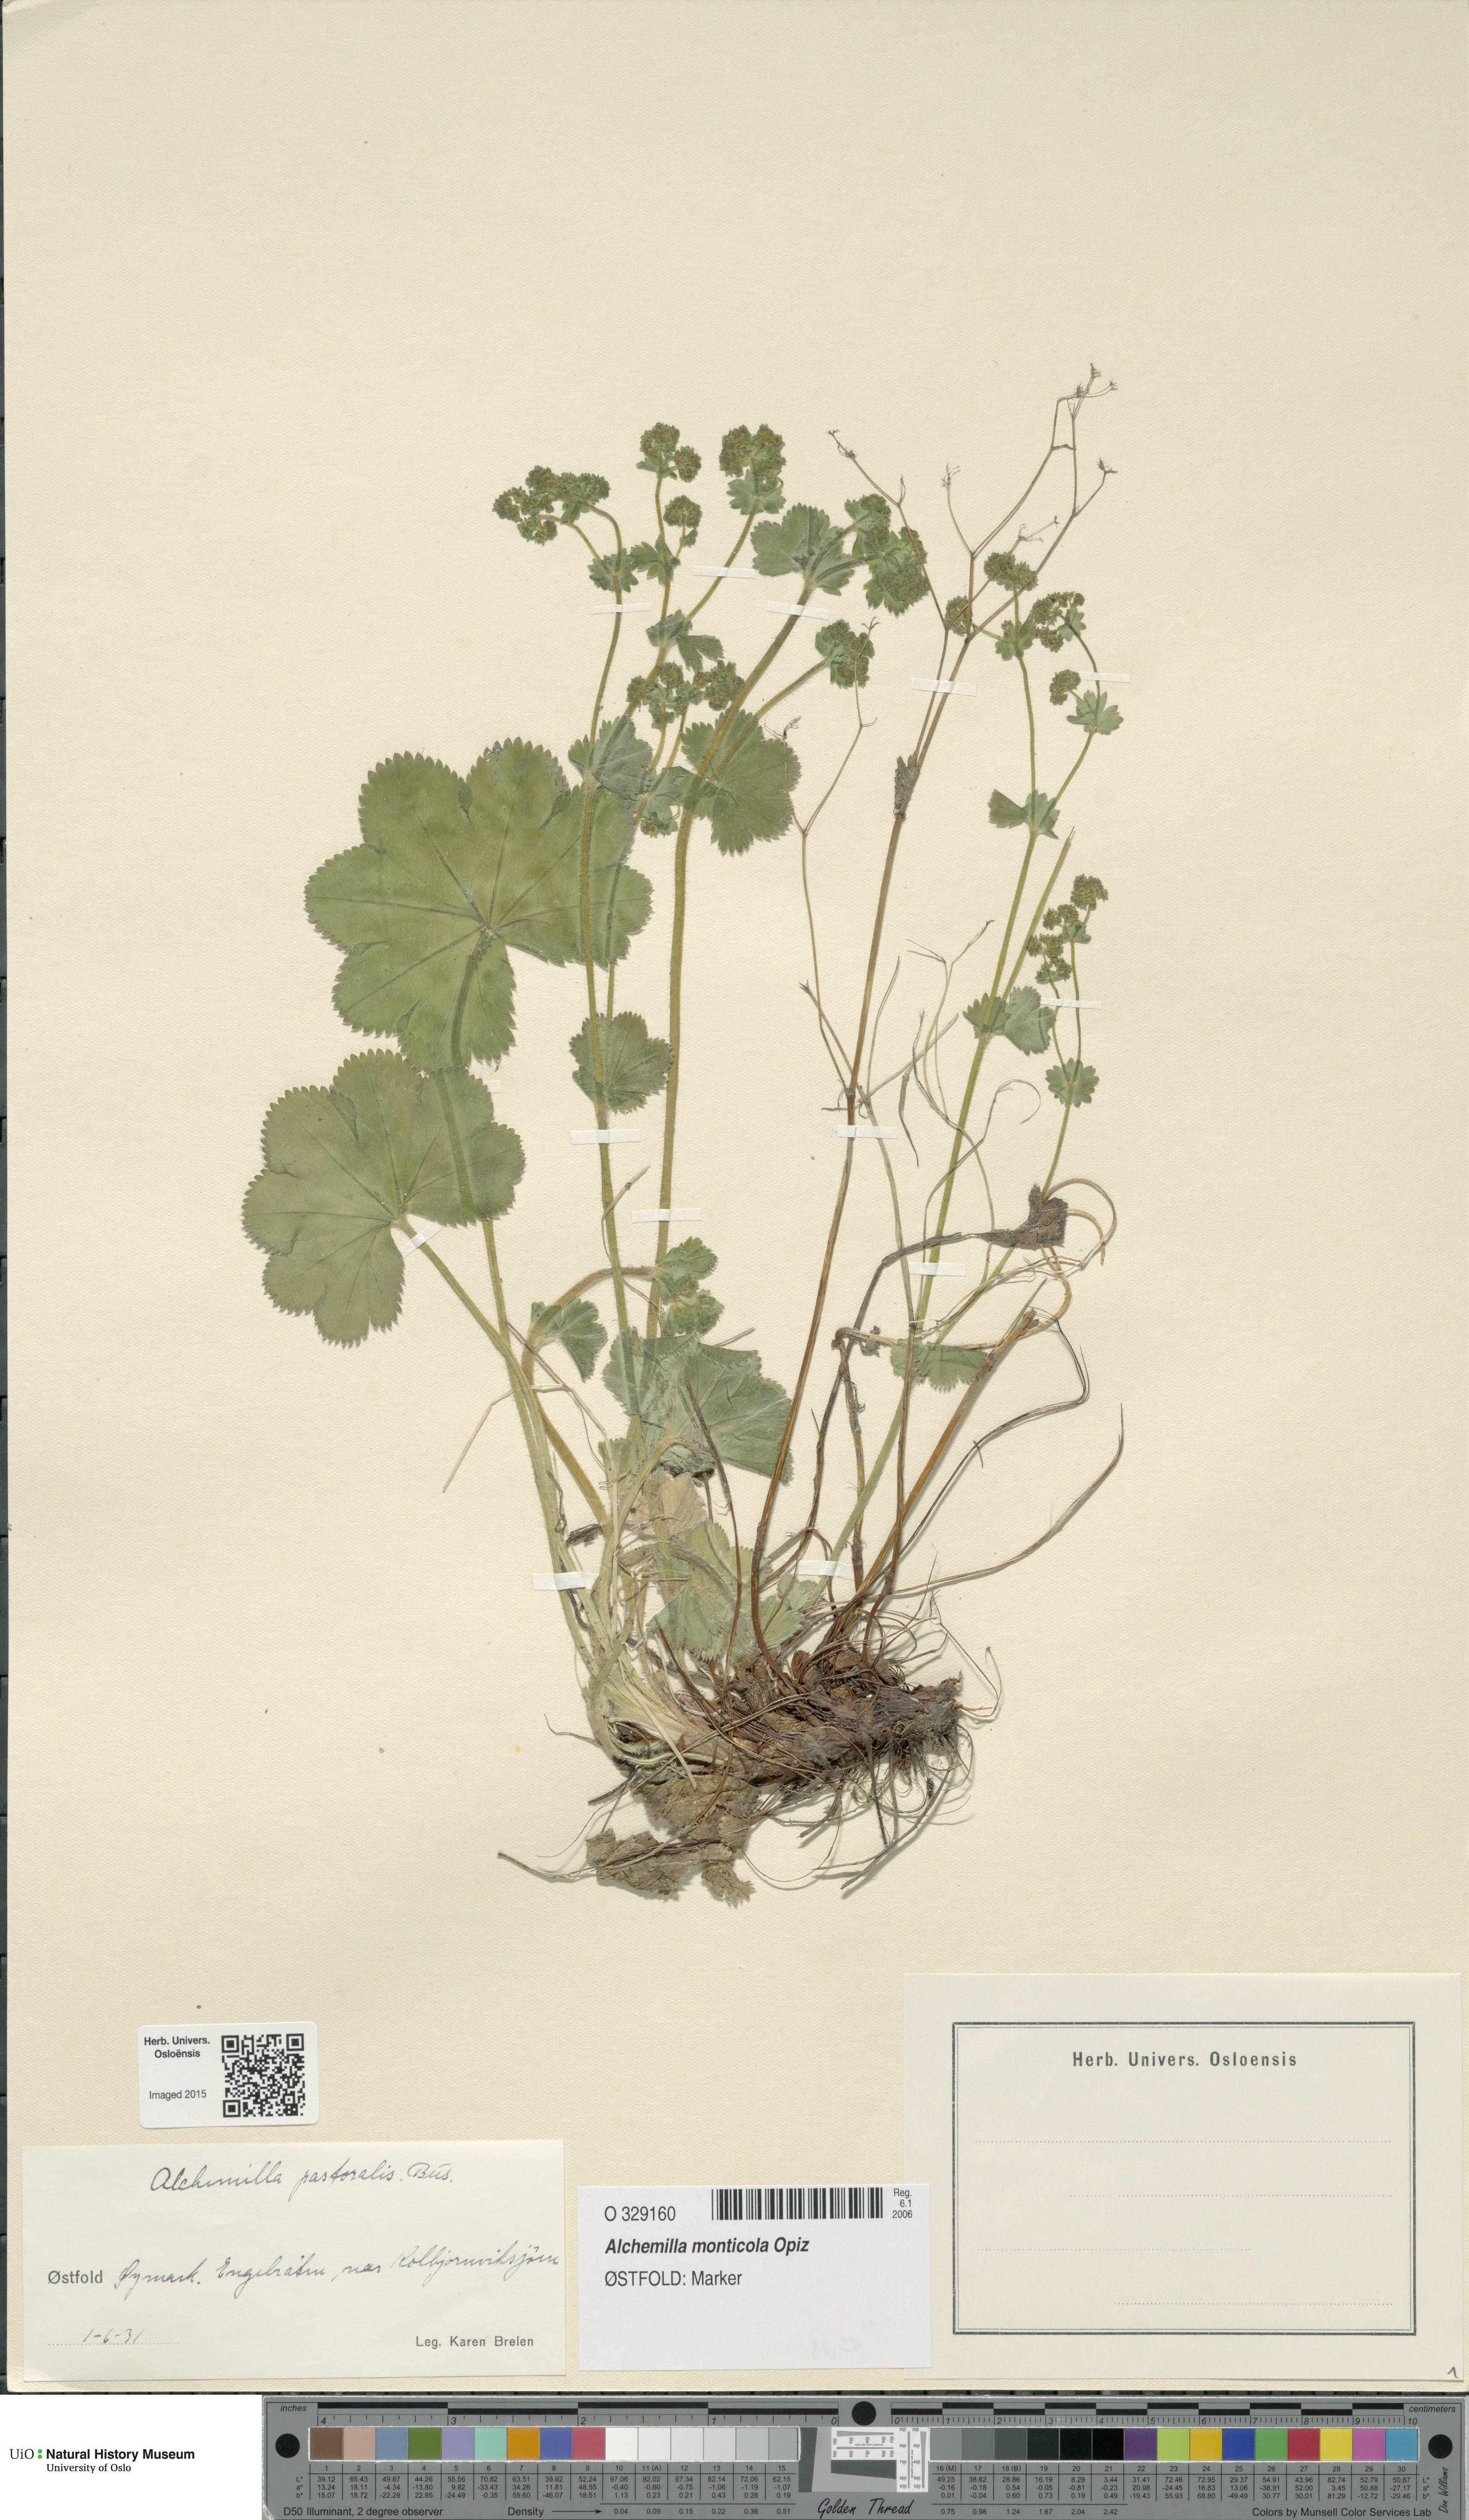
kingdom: Plantae
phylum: Tracheophyta
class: Magnoliopsida
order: Rosales
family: Rosaceae
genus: Alchemilla
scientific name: Alchemilla monticola
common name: Hairy lady's mantle
